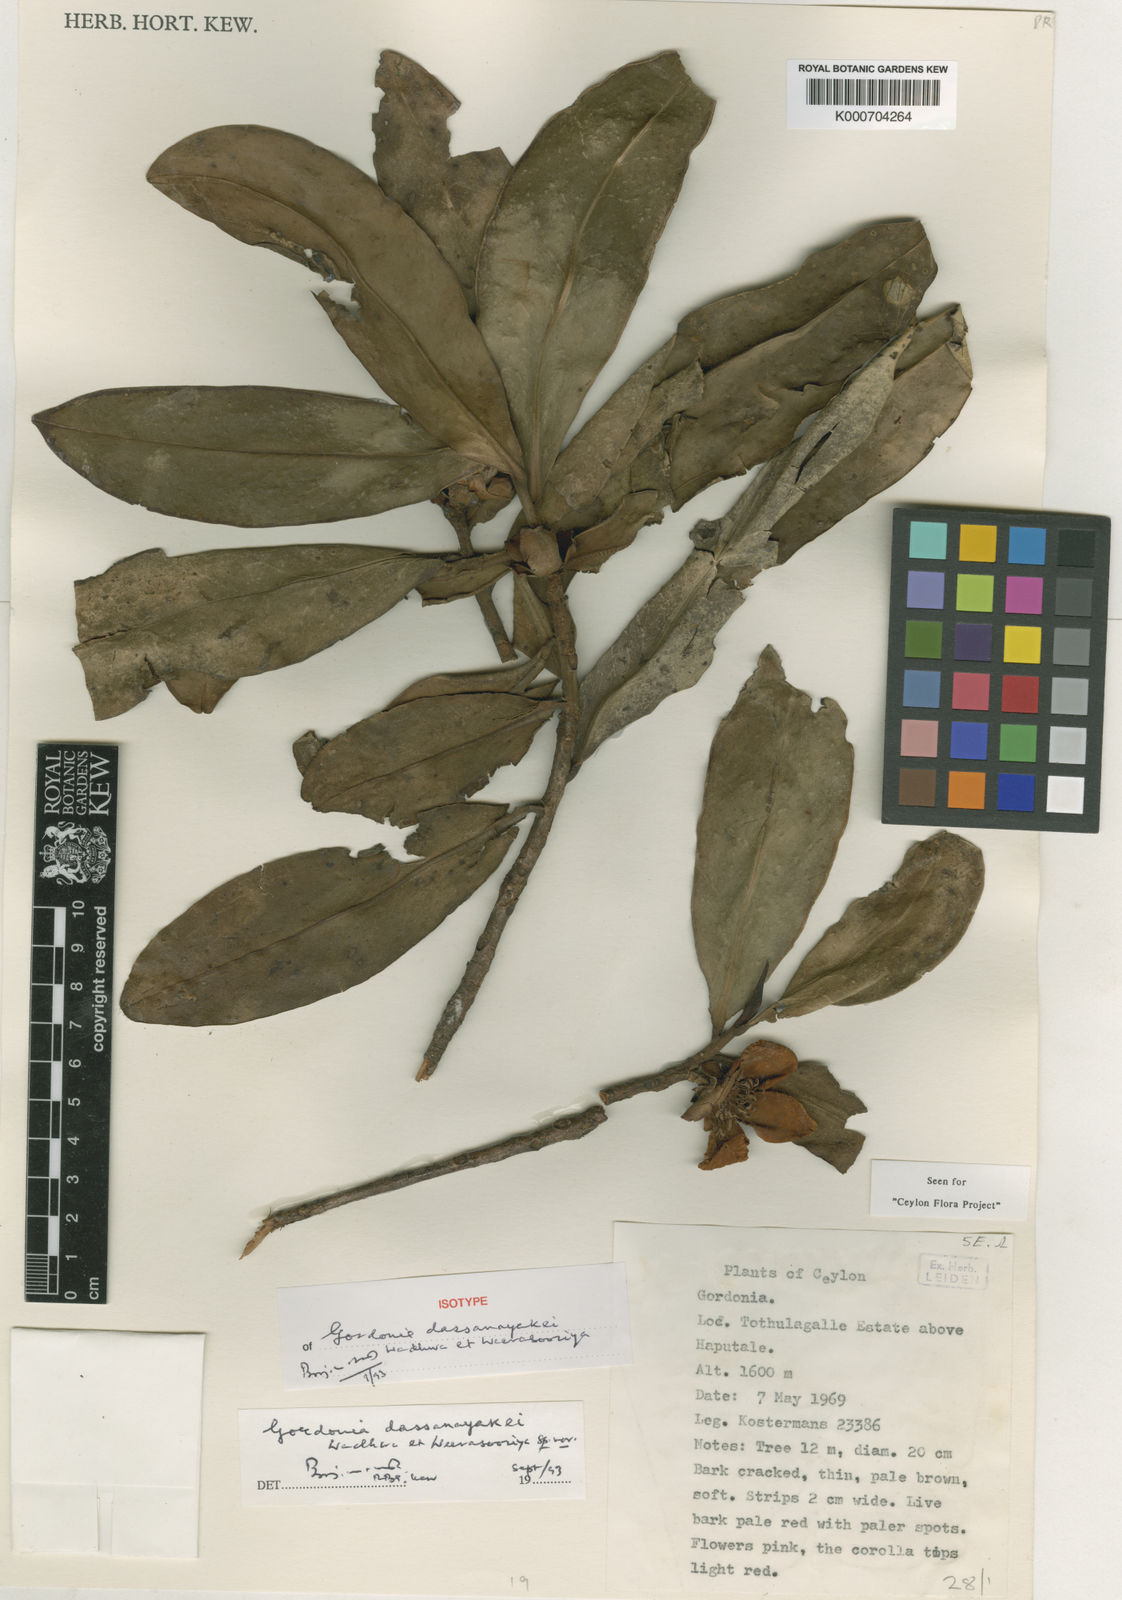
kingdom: Plantae
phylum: Tracheophyta
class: Magnoliopsida
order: Ericales
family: Theaceae
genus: Polyspora
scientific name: Polyspora dassanayakei
